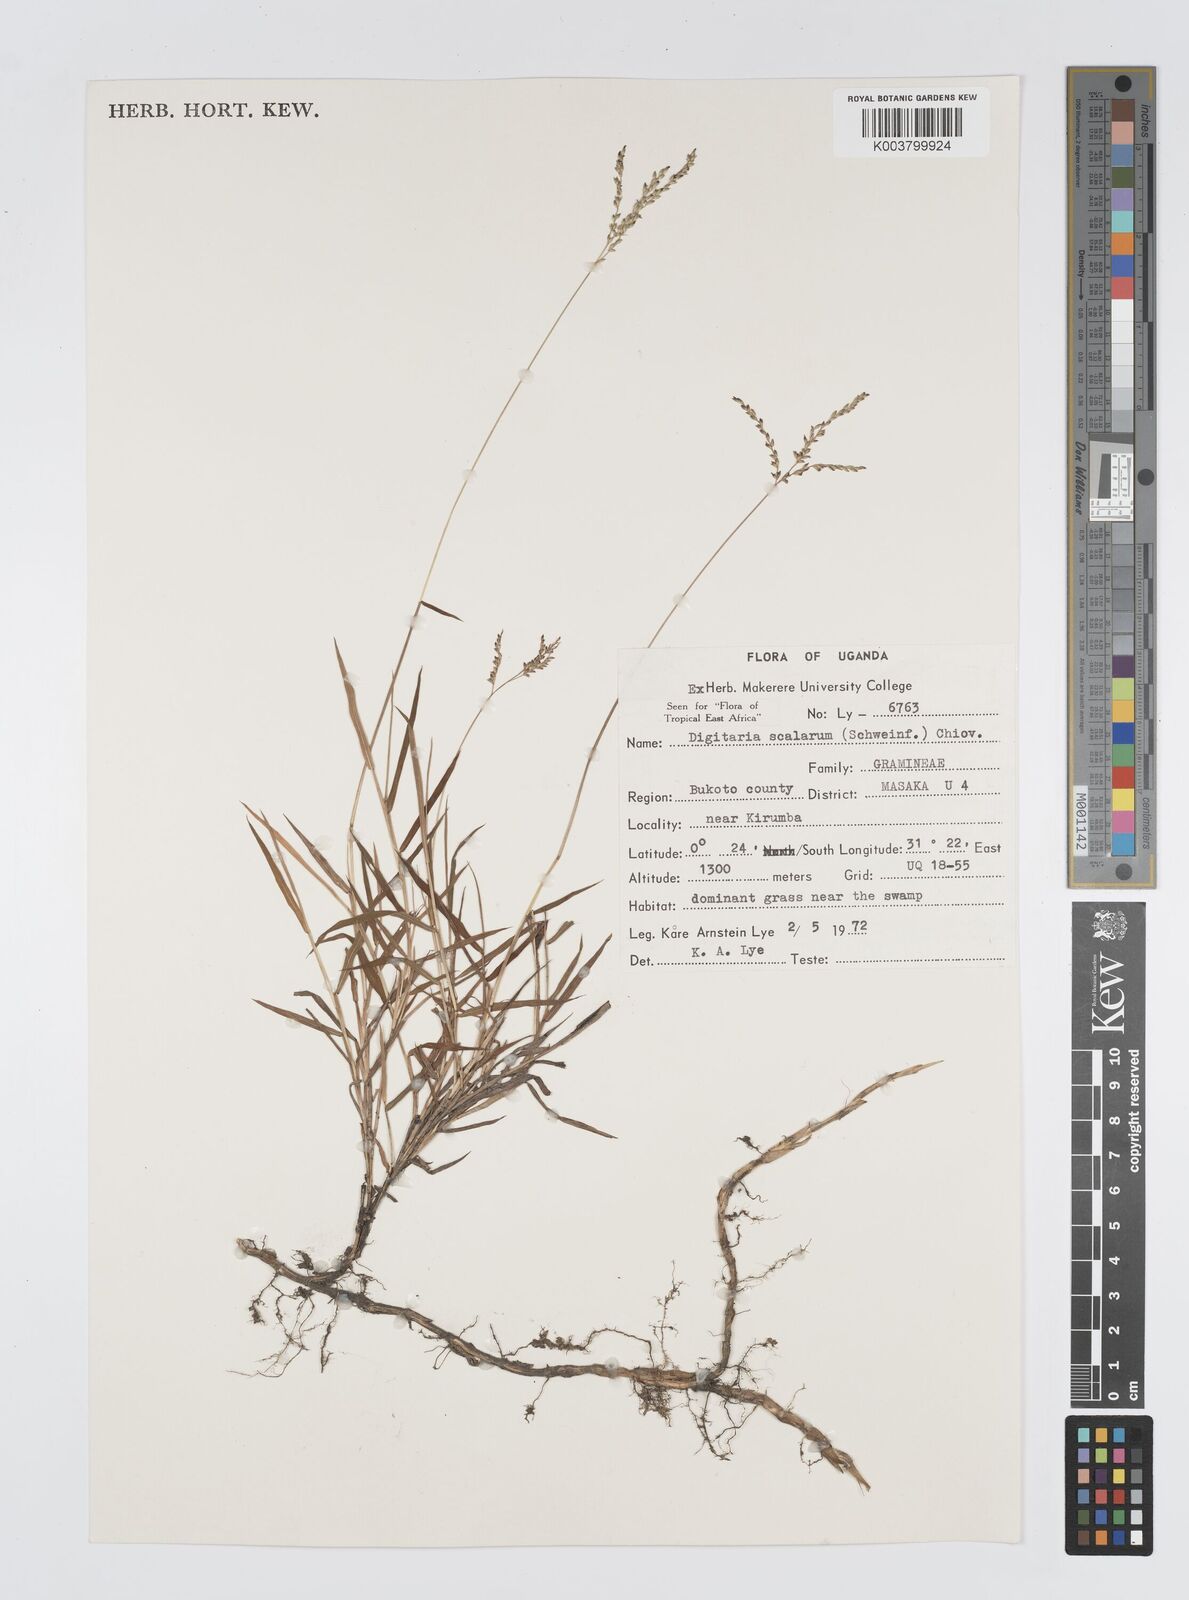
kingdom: Plantae
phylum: Tracheophyta
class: Liliopsida
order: Poales
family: Poaceae
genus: Digitaria
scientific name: Digitaria abyssinica
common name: African couchgrass
